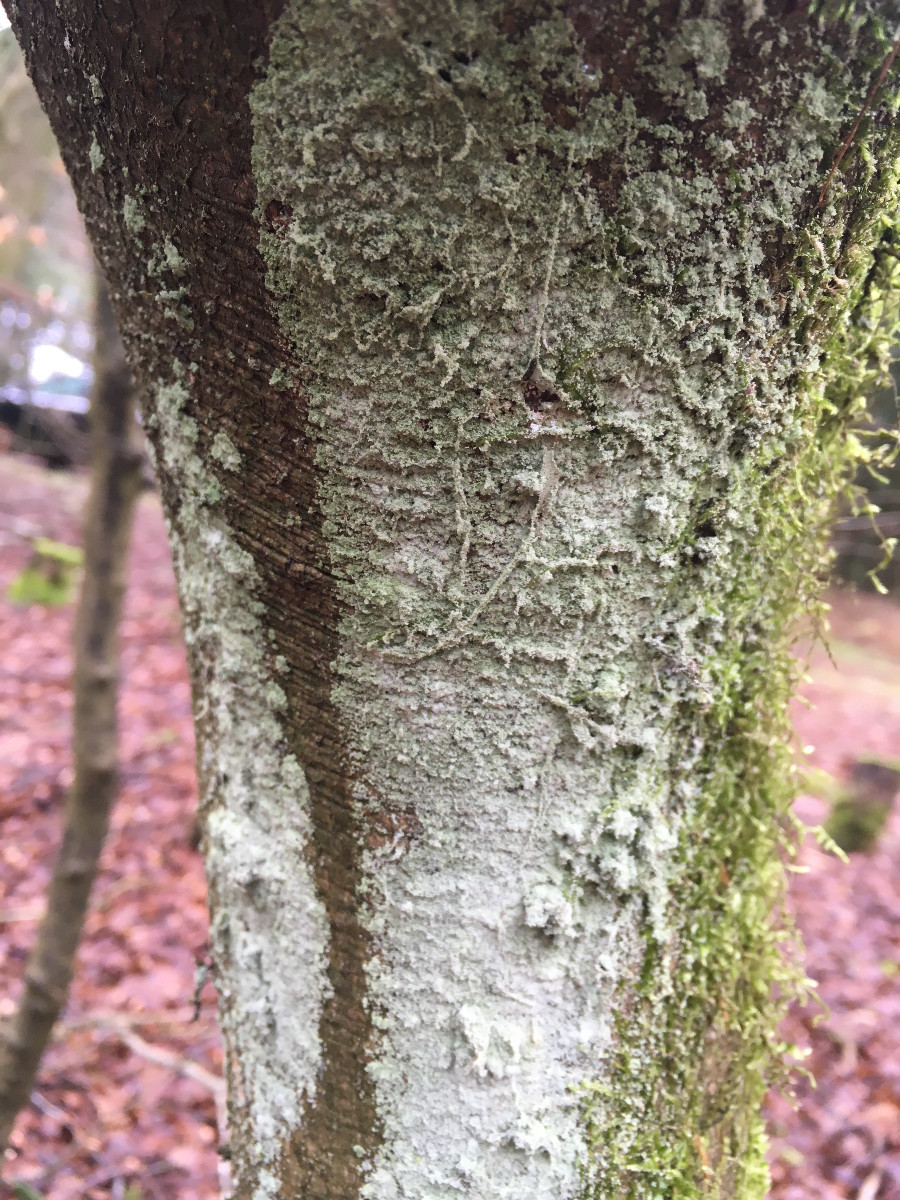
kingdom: Fungi
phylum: Basidiomycota
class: Agaricomycetes
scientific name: Agaricomycetes
